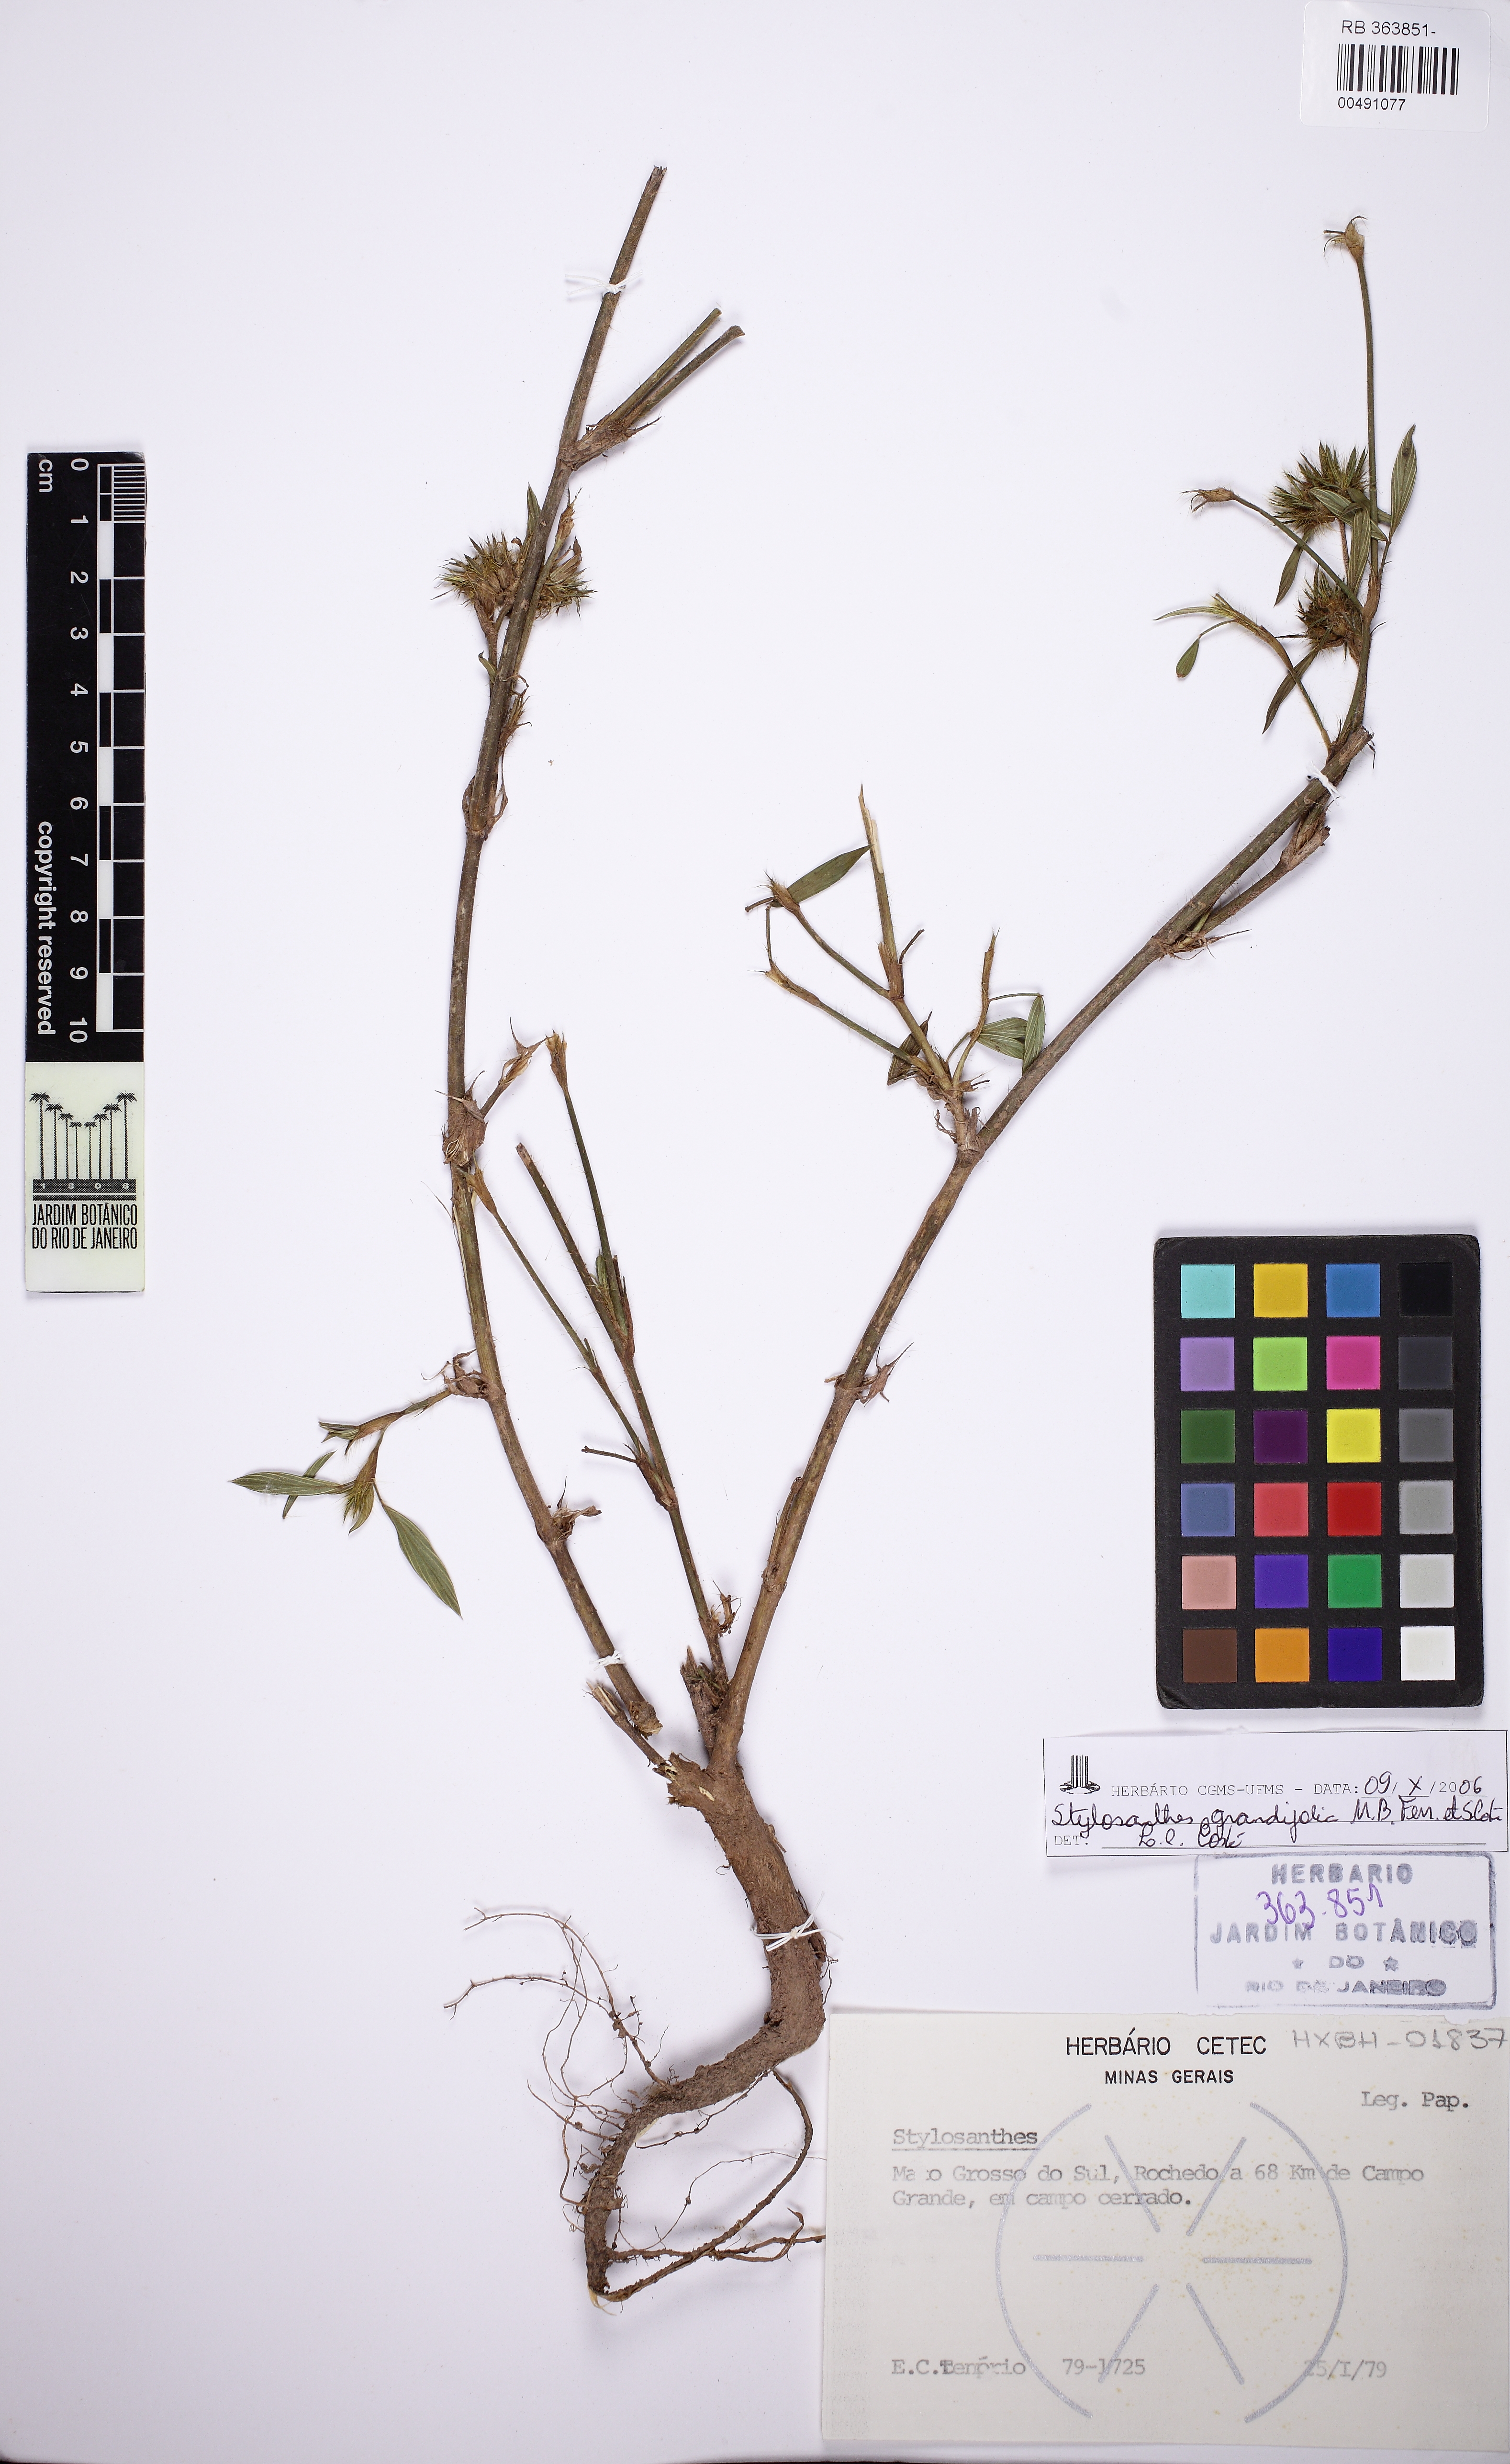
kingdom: Plantae
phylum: Tracheophyta
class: Magnoliopsida
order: Fabales
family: Fabaceae
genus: Stylosanthes
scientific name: Stylosanthes guianensis
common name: Pencil flower
